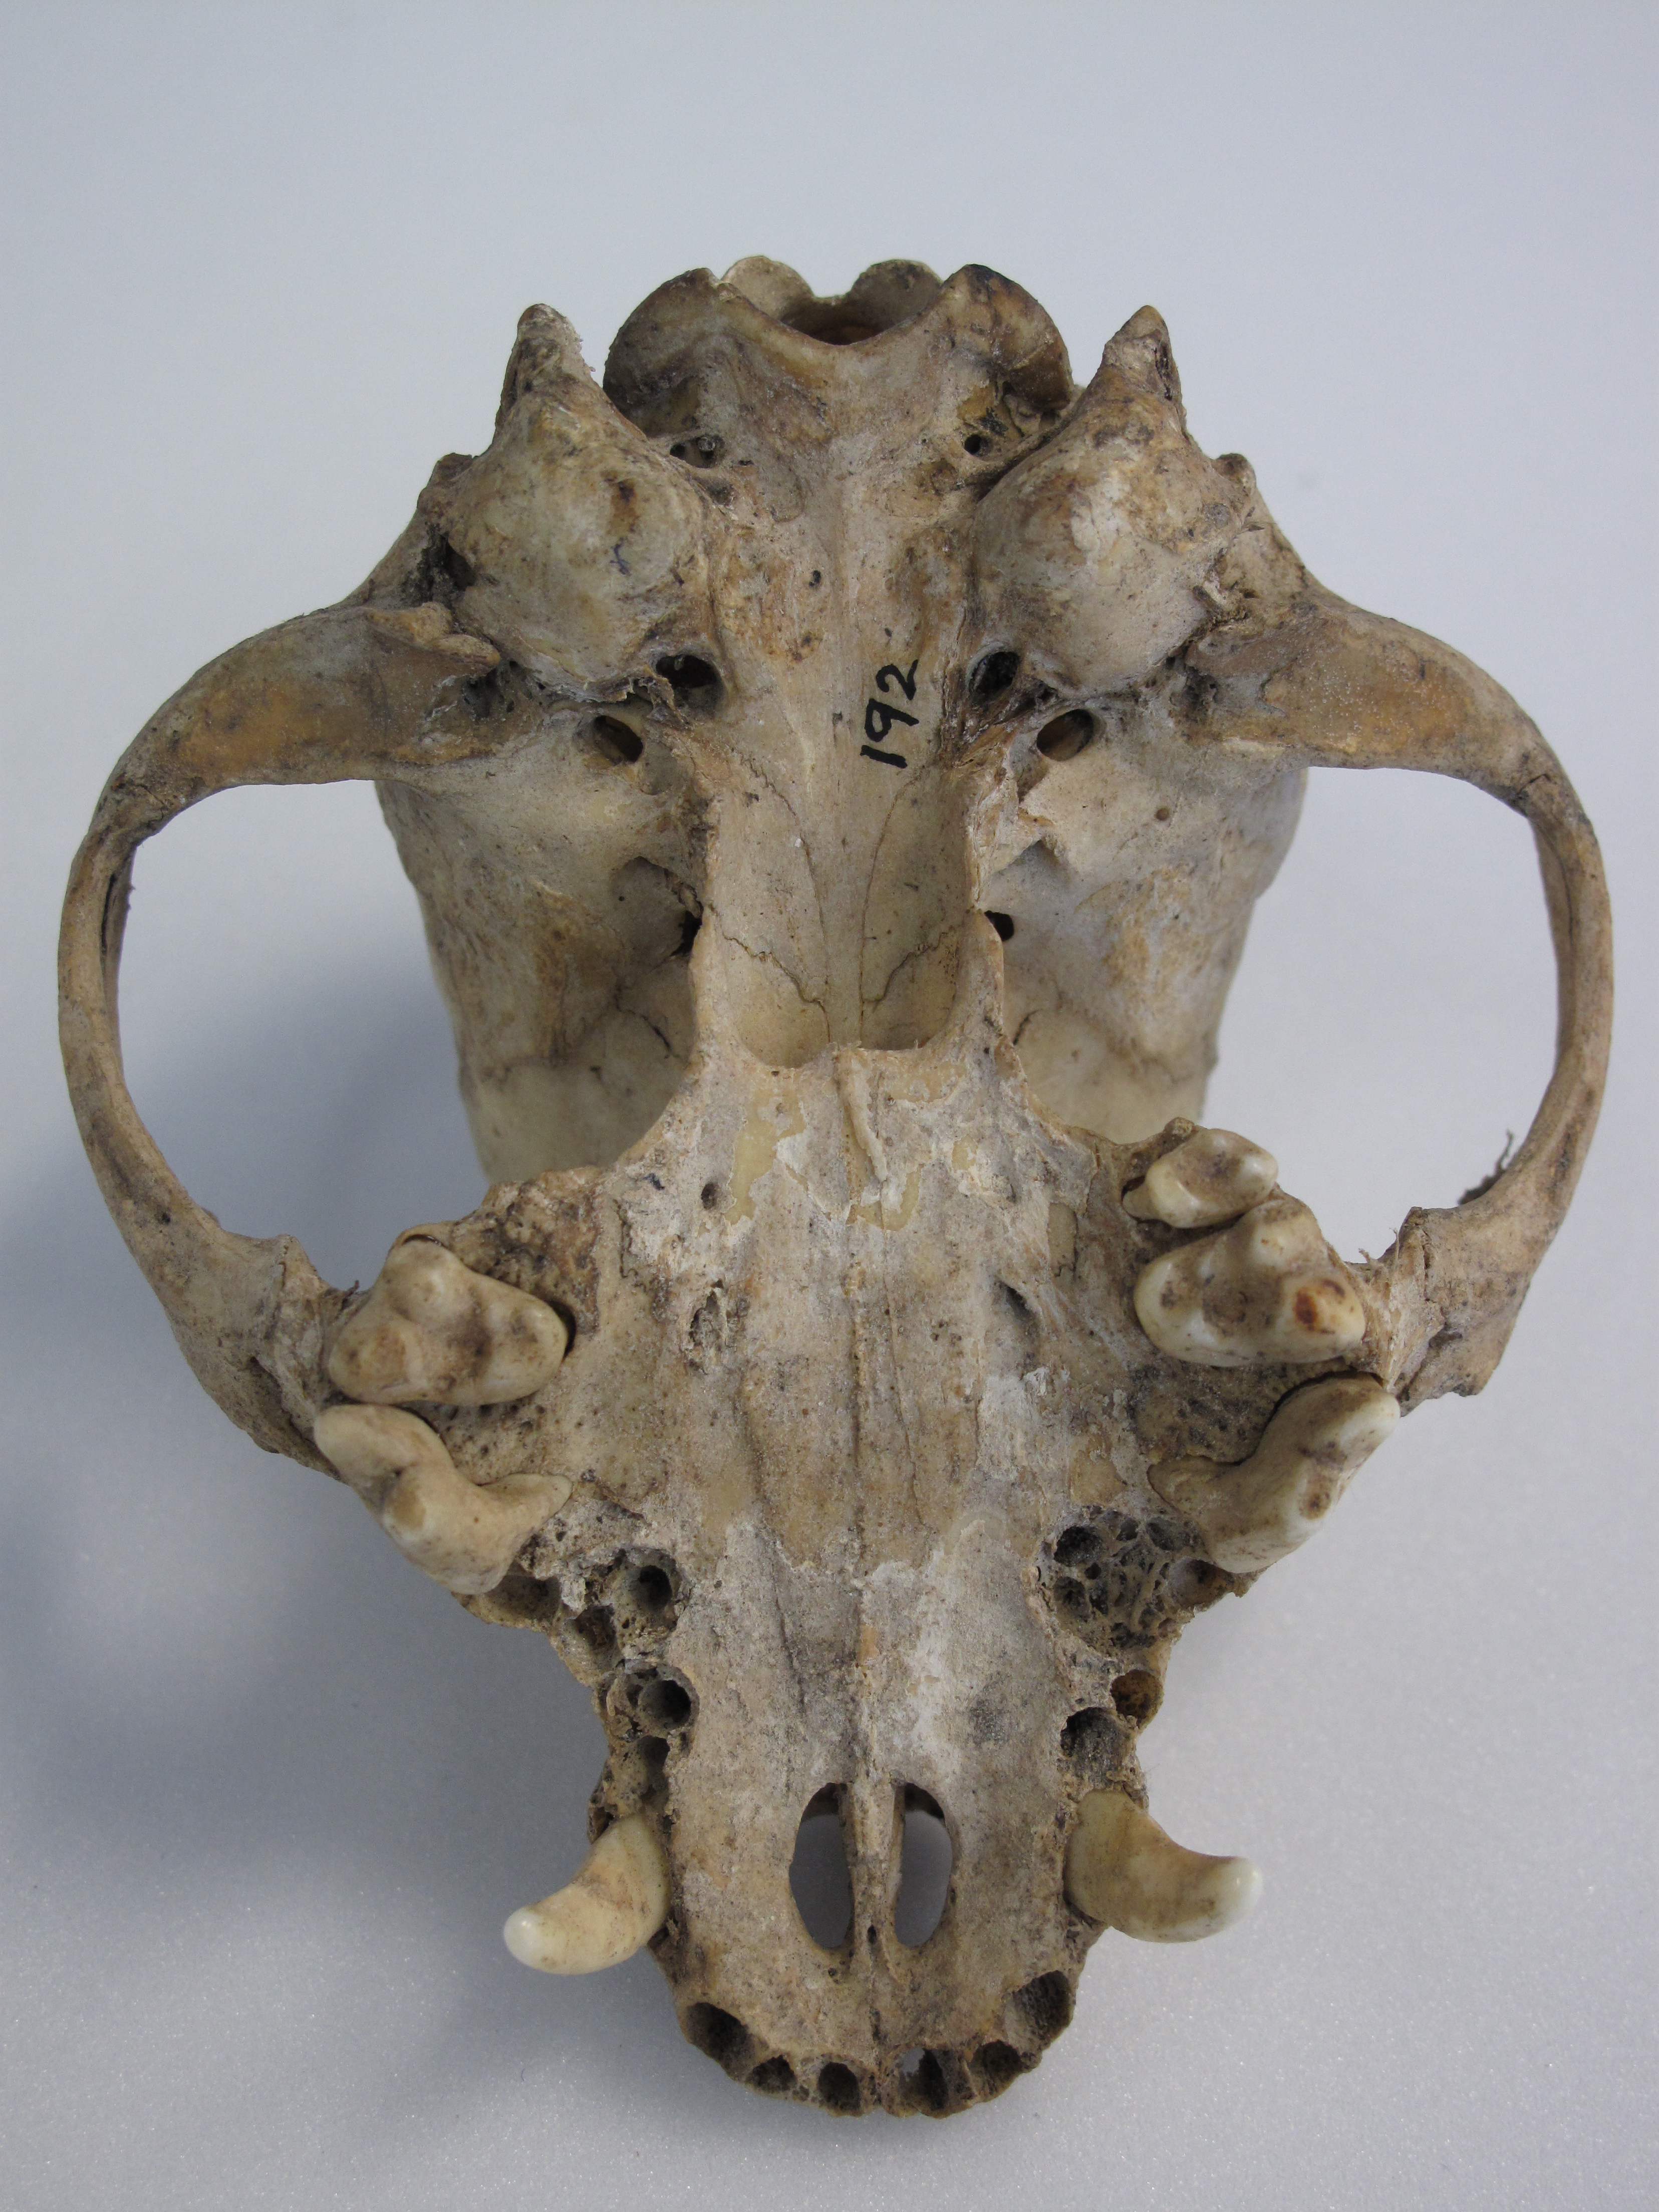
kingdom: Animalia
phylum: Chordata
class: Mammalia
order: Carnivora
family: Canidae
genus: Canis
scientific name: Canis lupus
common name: Gray wolf
